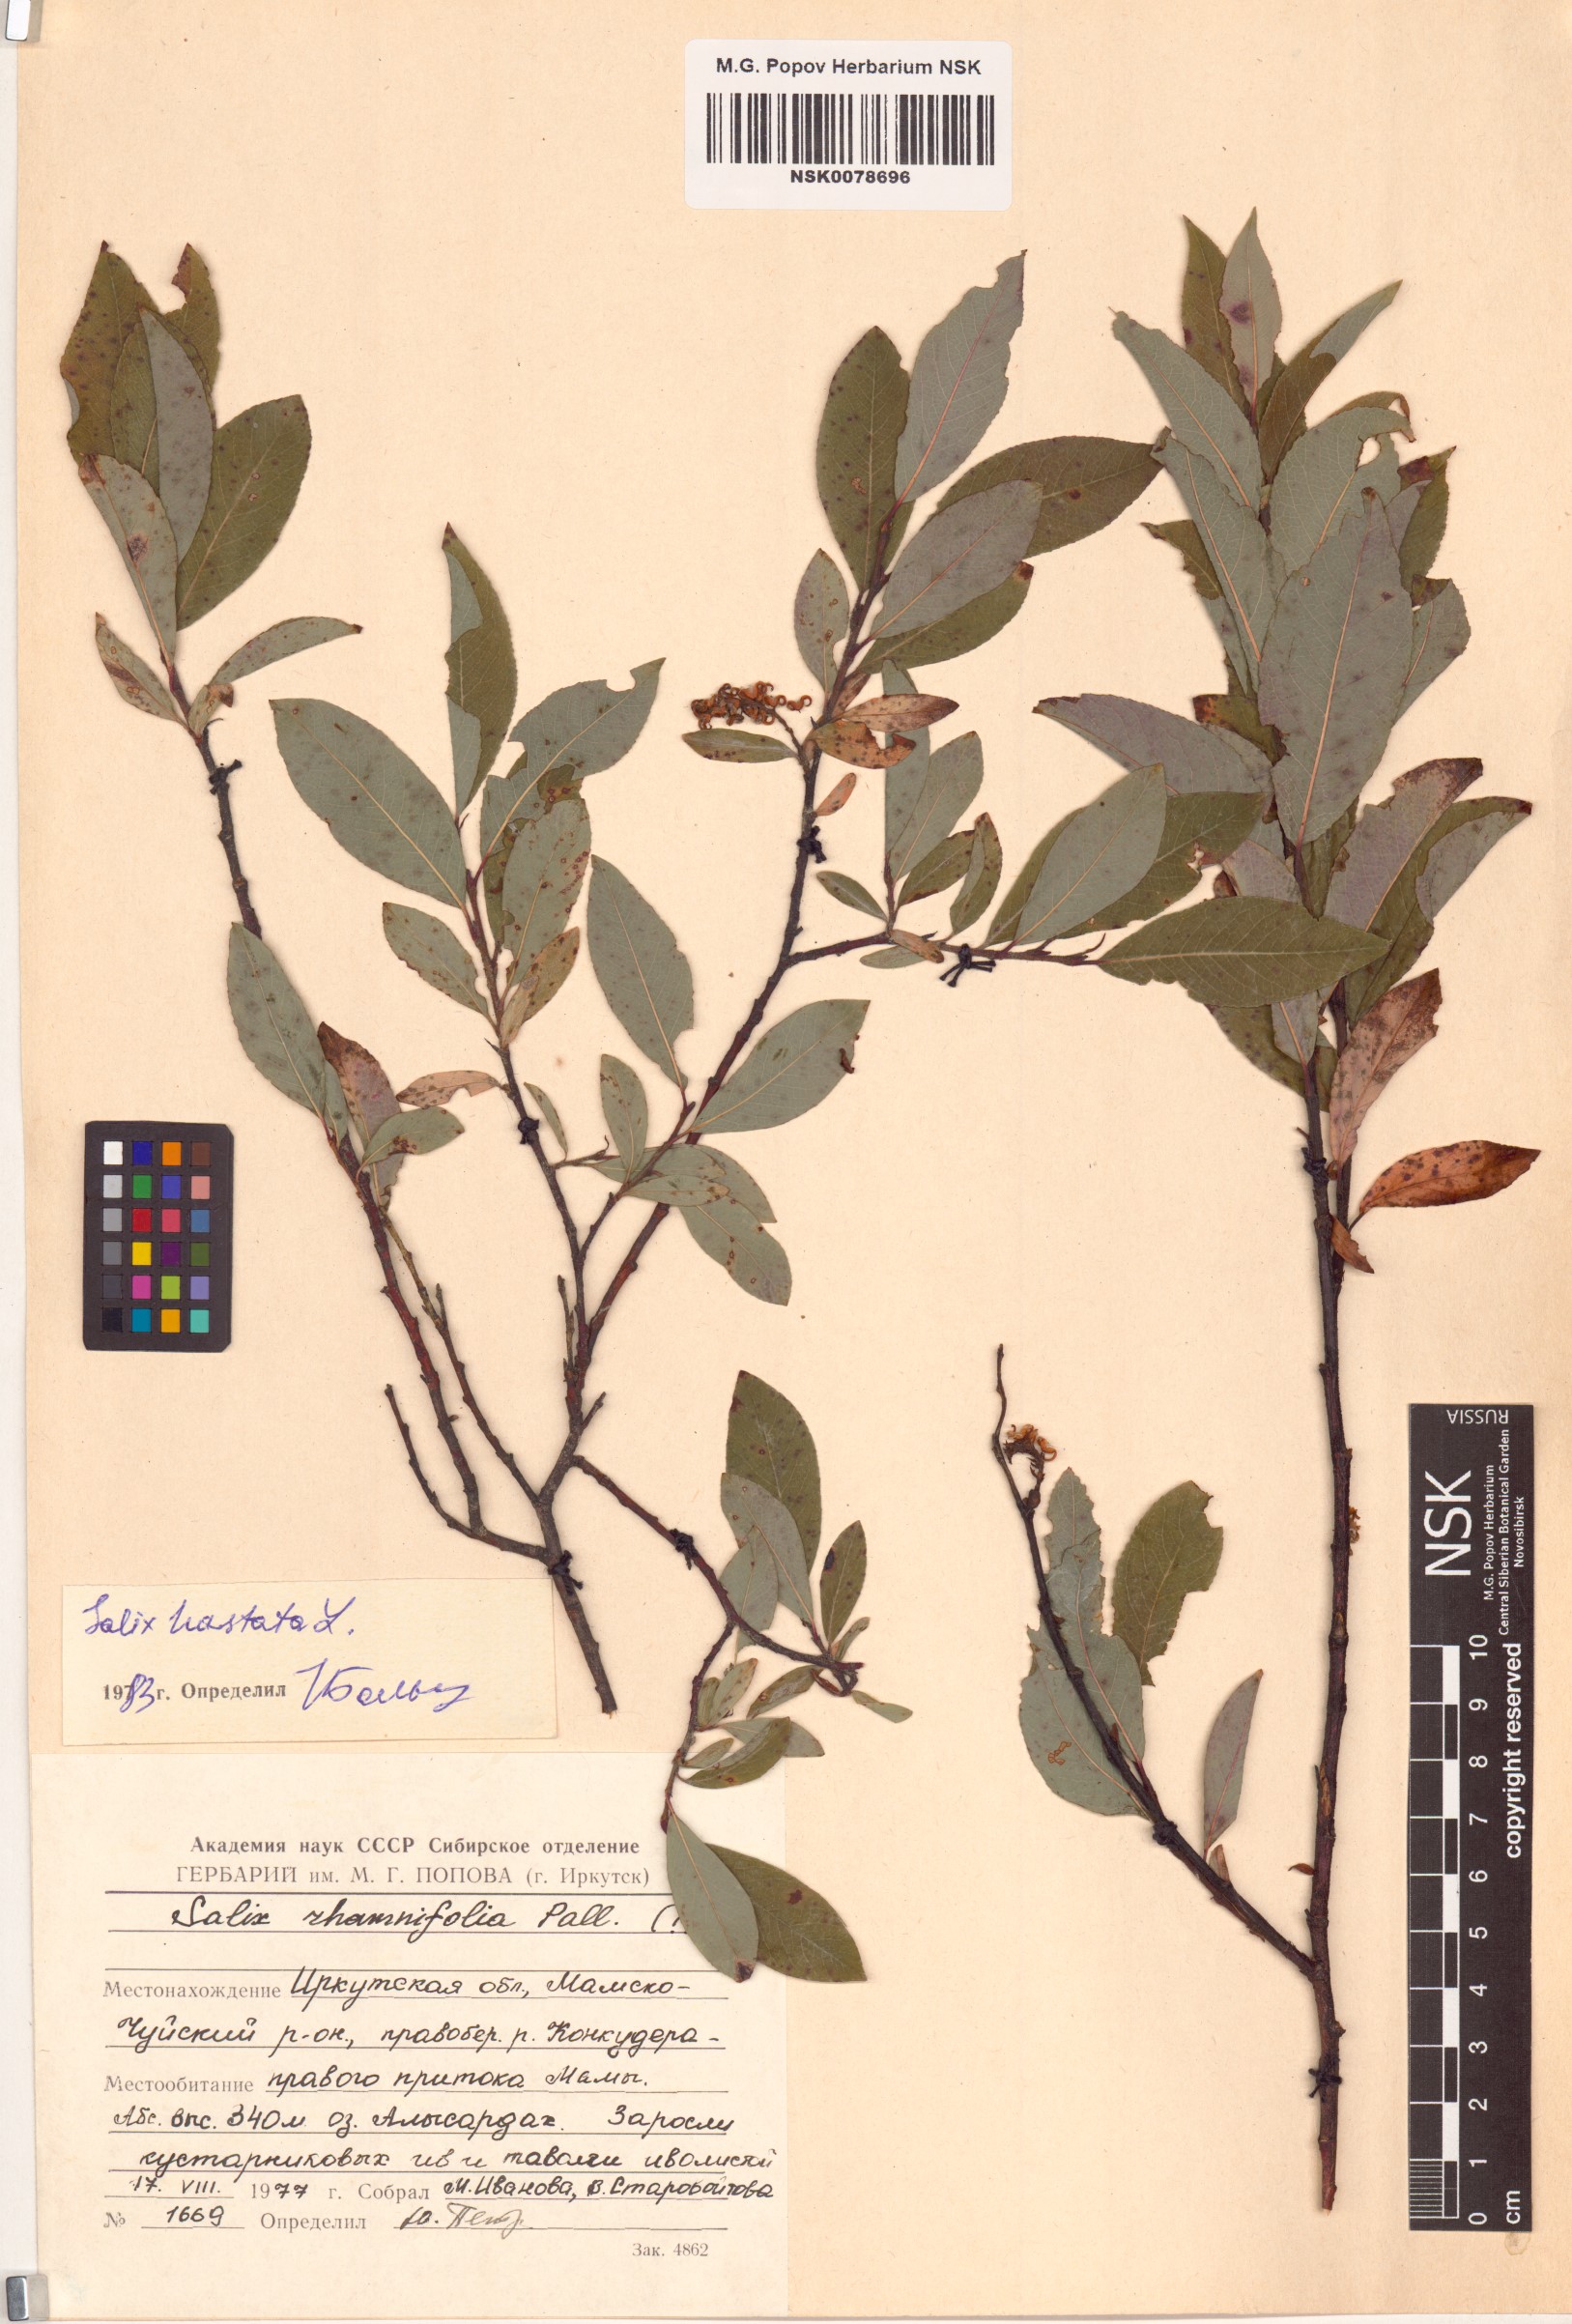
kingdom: Plantae
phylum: Tracheophyta
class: Magnoliopsida
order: Malpighiales
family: Salicaceae
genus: Salix
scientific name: Salix hastata
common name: Halberd willow
